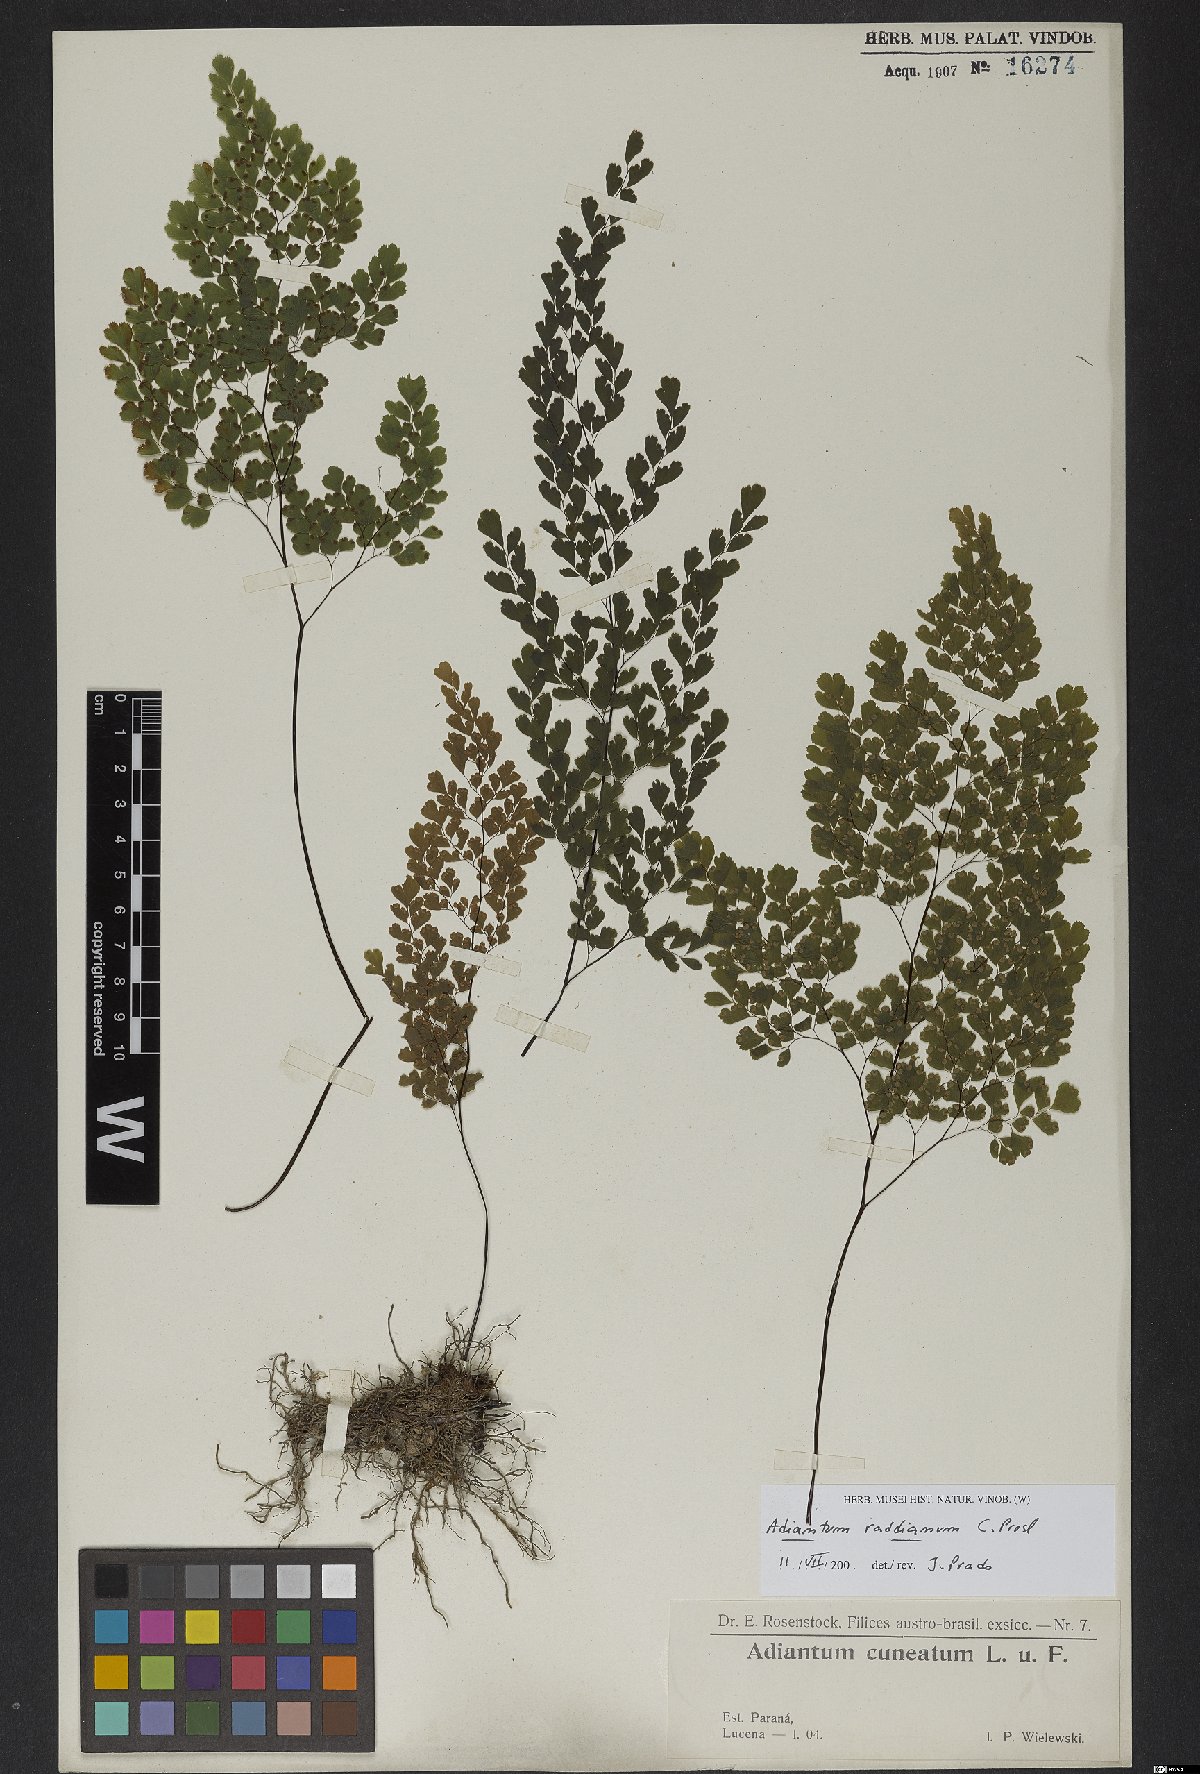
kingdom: Plantae
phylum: Tracheophyta
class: Polypodiopsida
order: Polypodiales
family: Pteridaceae
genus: Adiantum
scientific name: Adiantum raddianum
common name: Delta maidenhair fern
